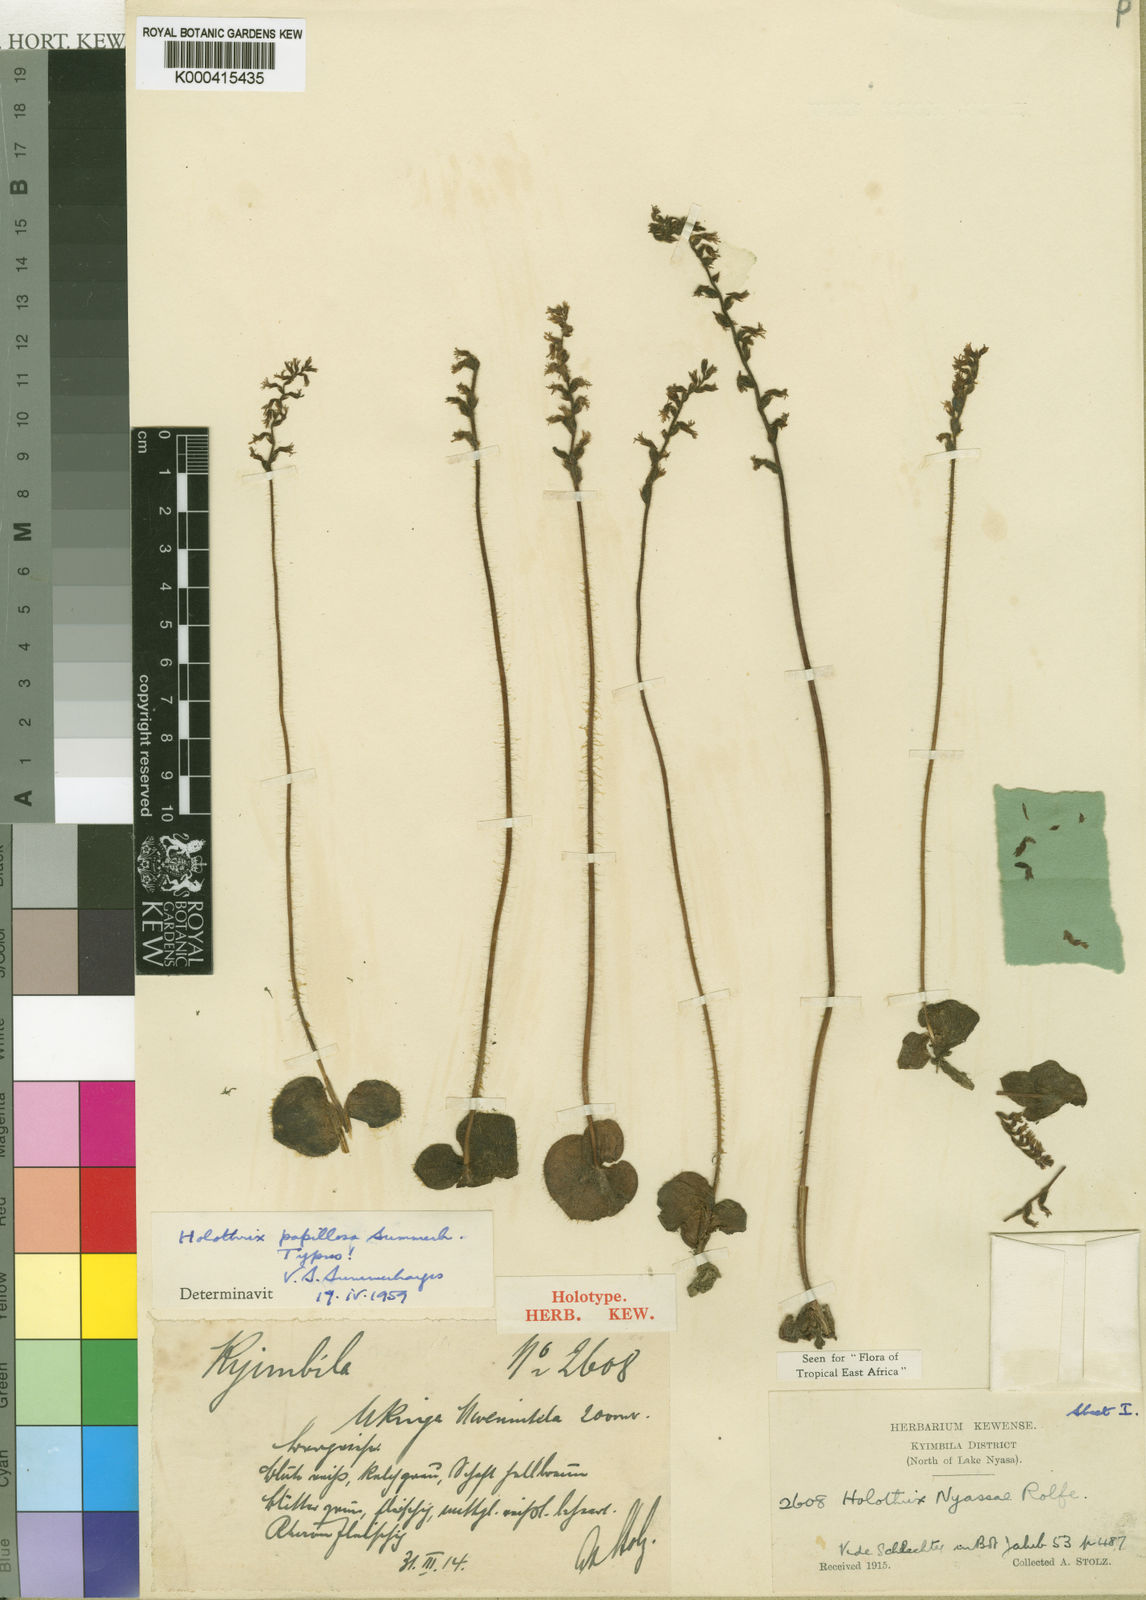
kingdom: Plantae
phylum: Tracheophyta
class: Liliopsida
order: Asparagales
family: Orchidaceae
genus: Holothrix
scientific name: Holothrix papillosa
